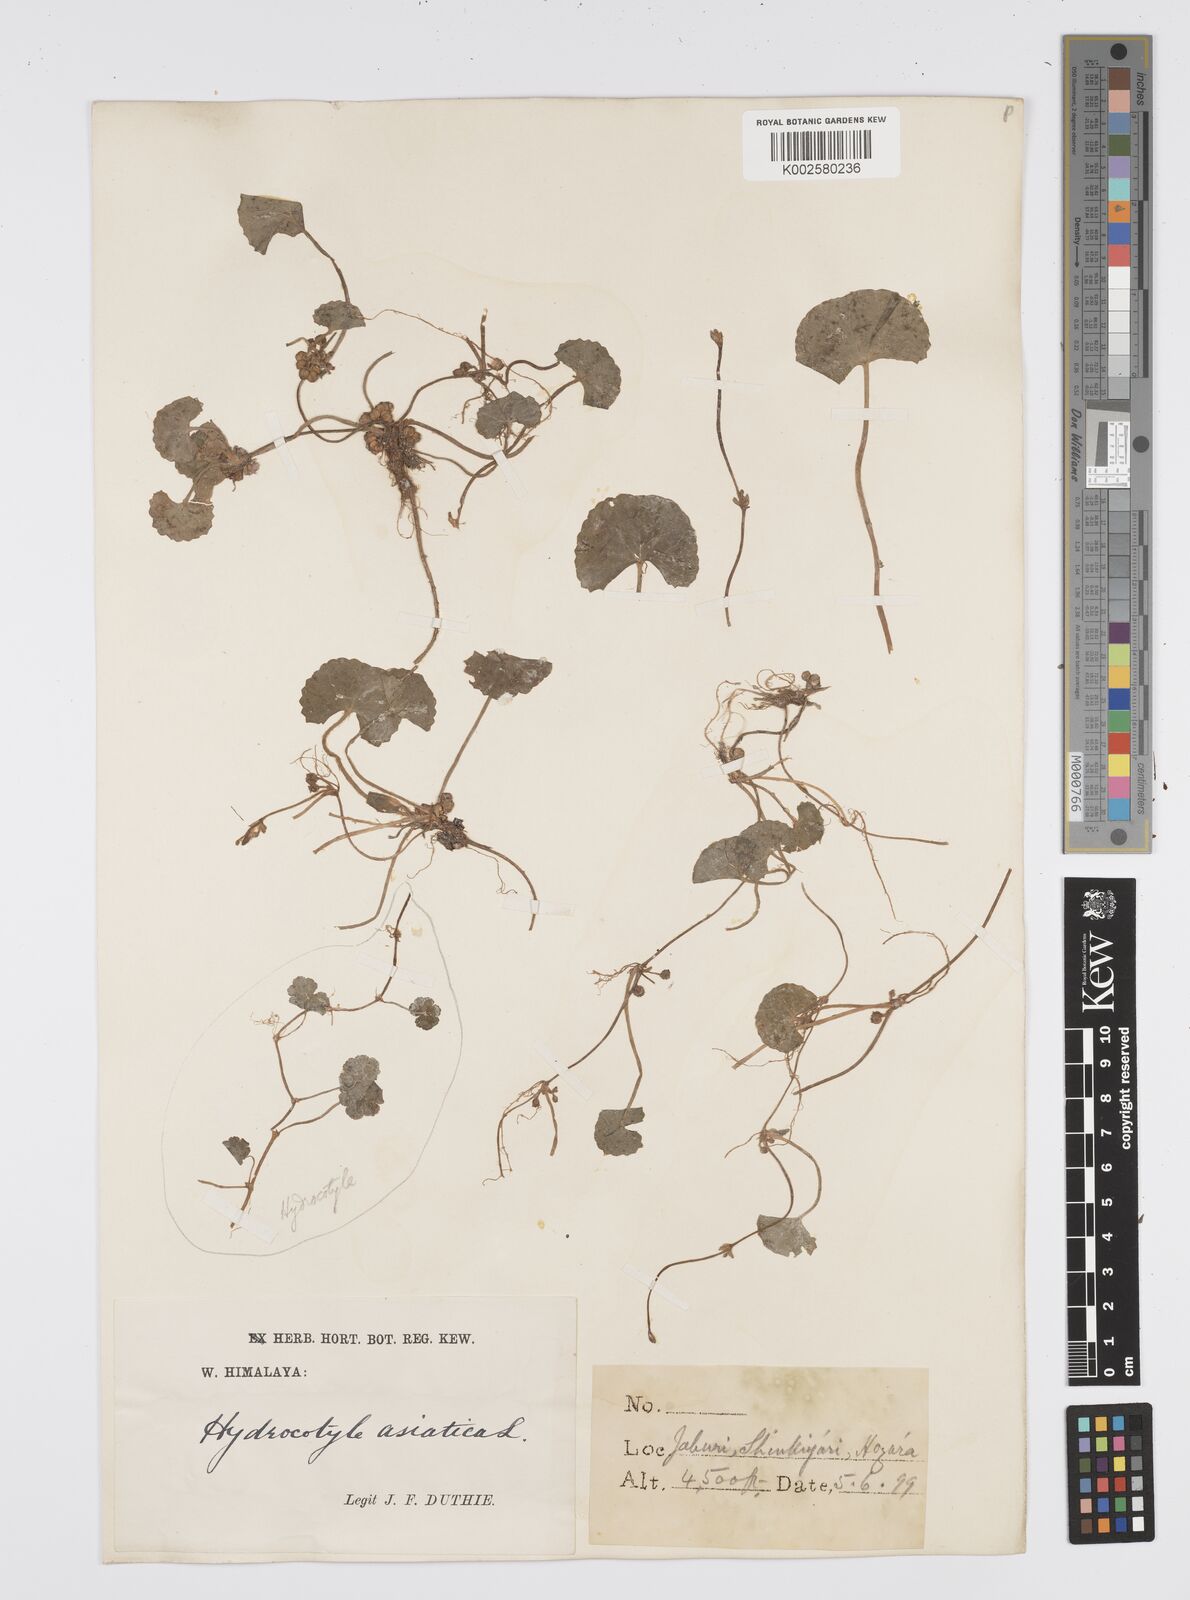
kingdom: Plantae
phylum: Tracheophyta
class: Magnoliopsida
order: Apiales
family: Apiaceae
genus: Centella
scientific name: Centella asiatica
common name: Spadeleaf
